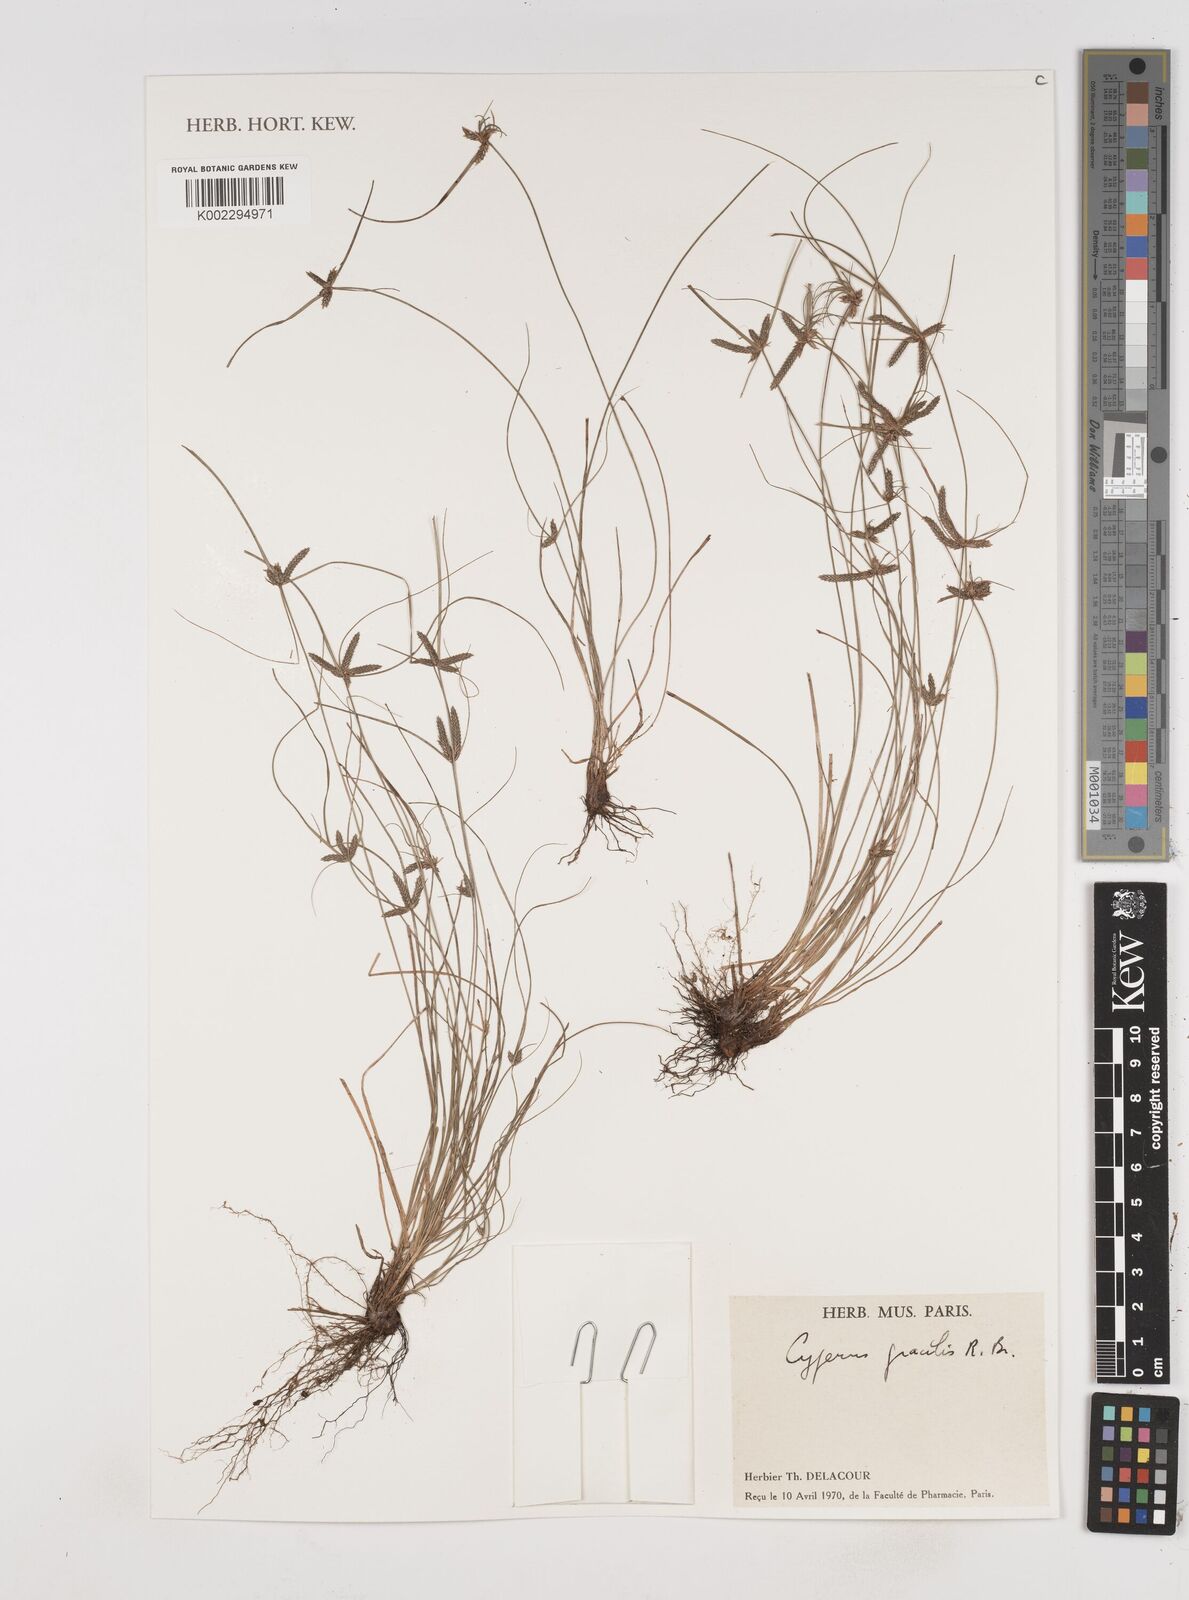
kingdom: Plantae
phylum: Tracheophyta
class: Liliopsida
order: Poales
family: Cyperaceae
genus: Cyperus
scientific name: Cyperus gracilis
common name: Slimjim flatsedge
